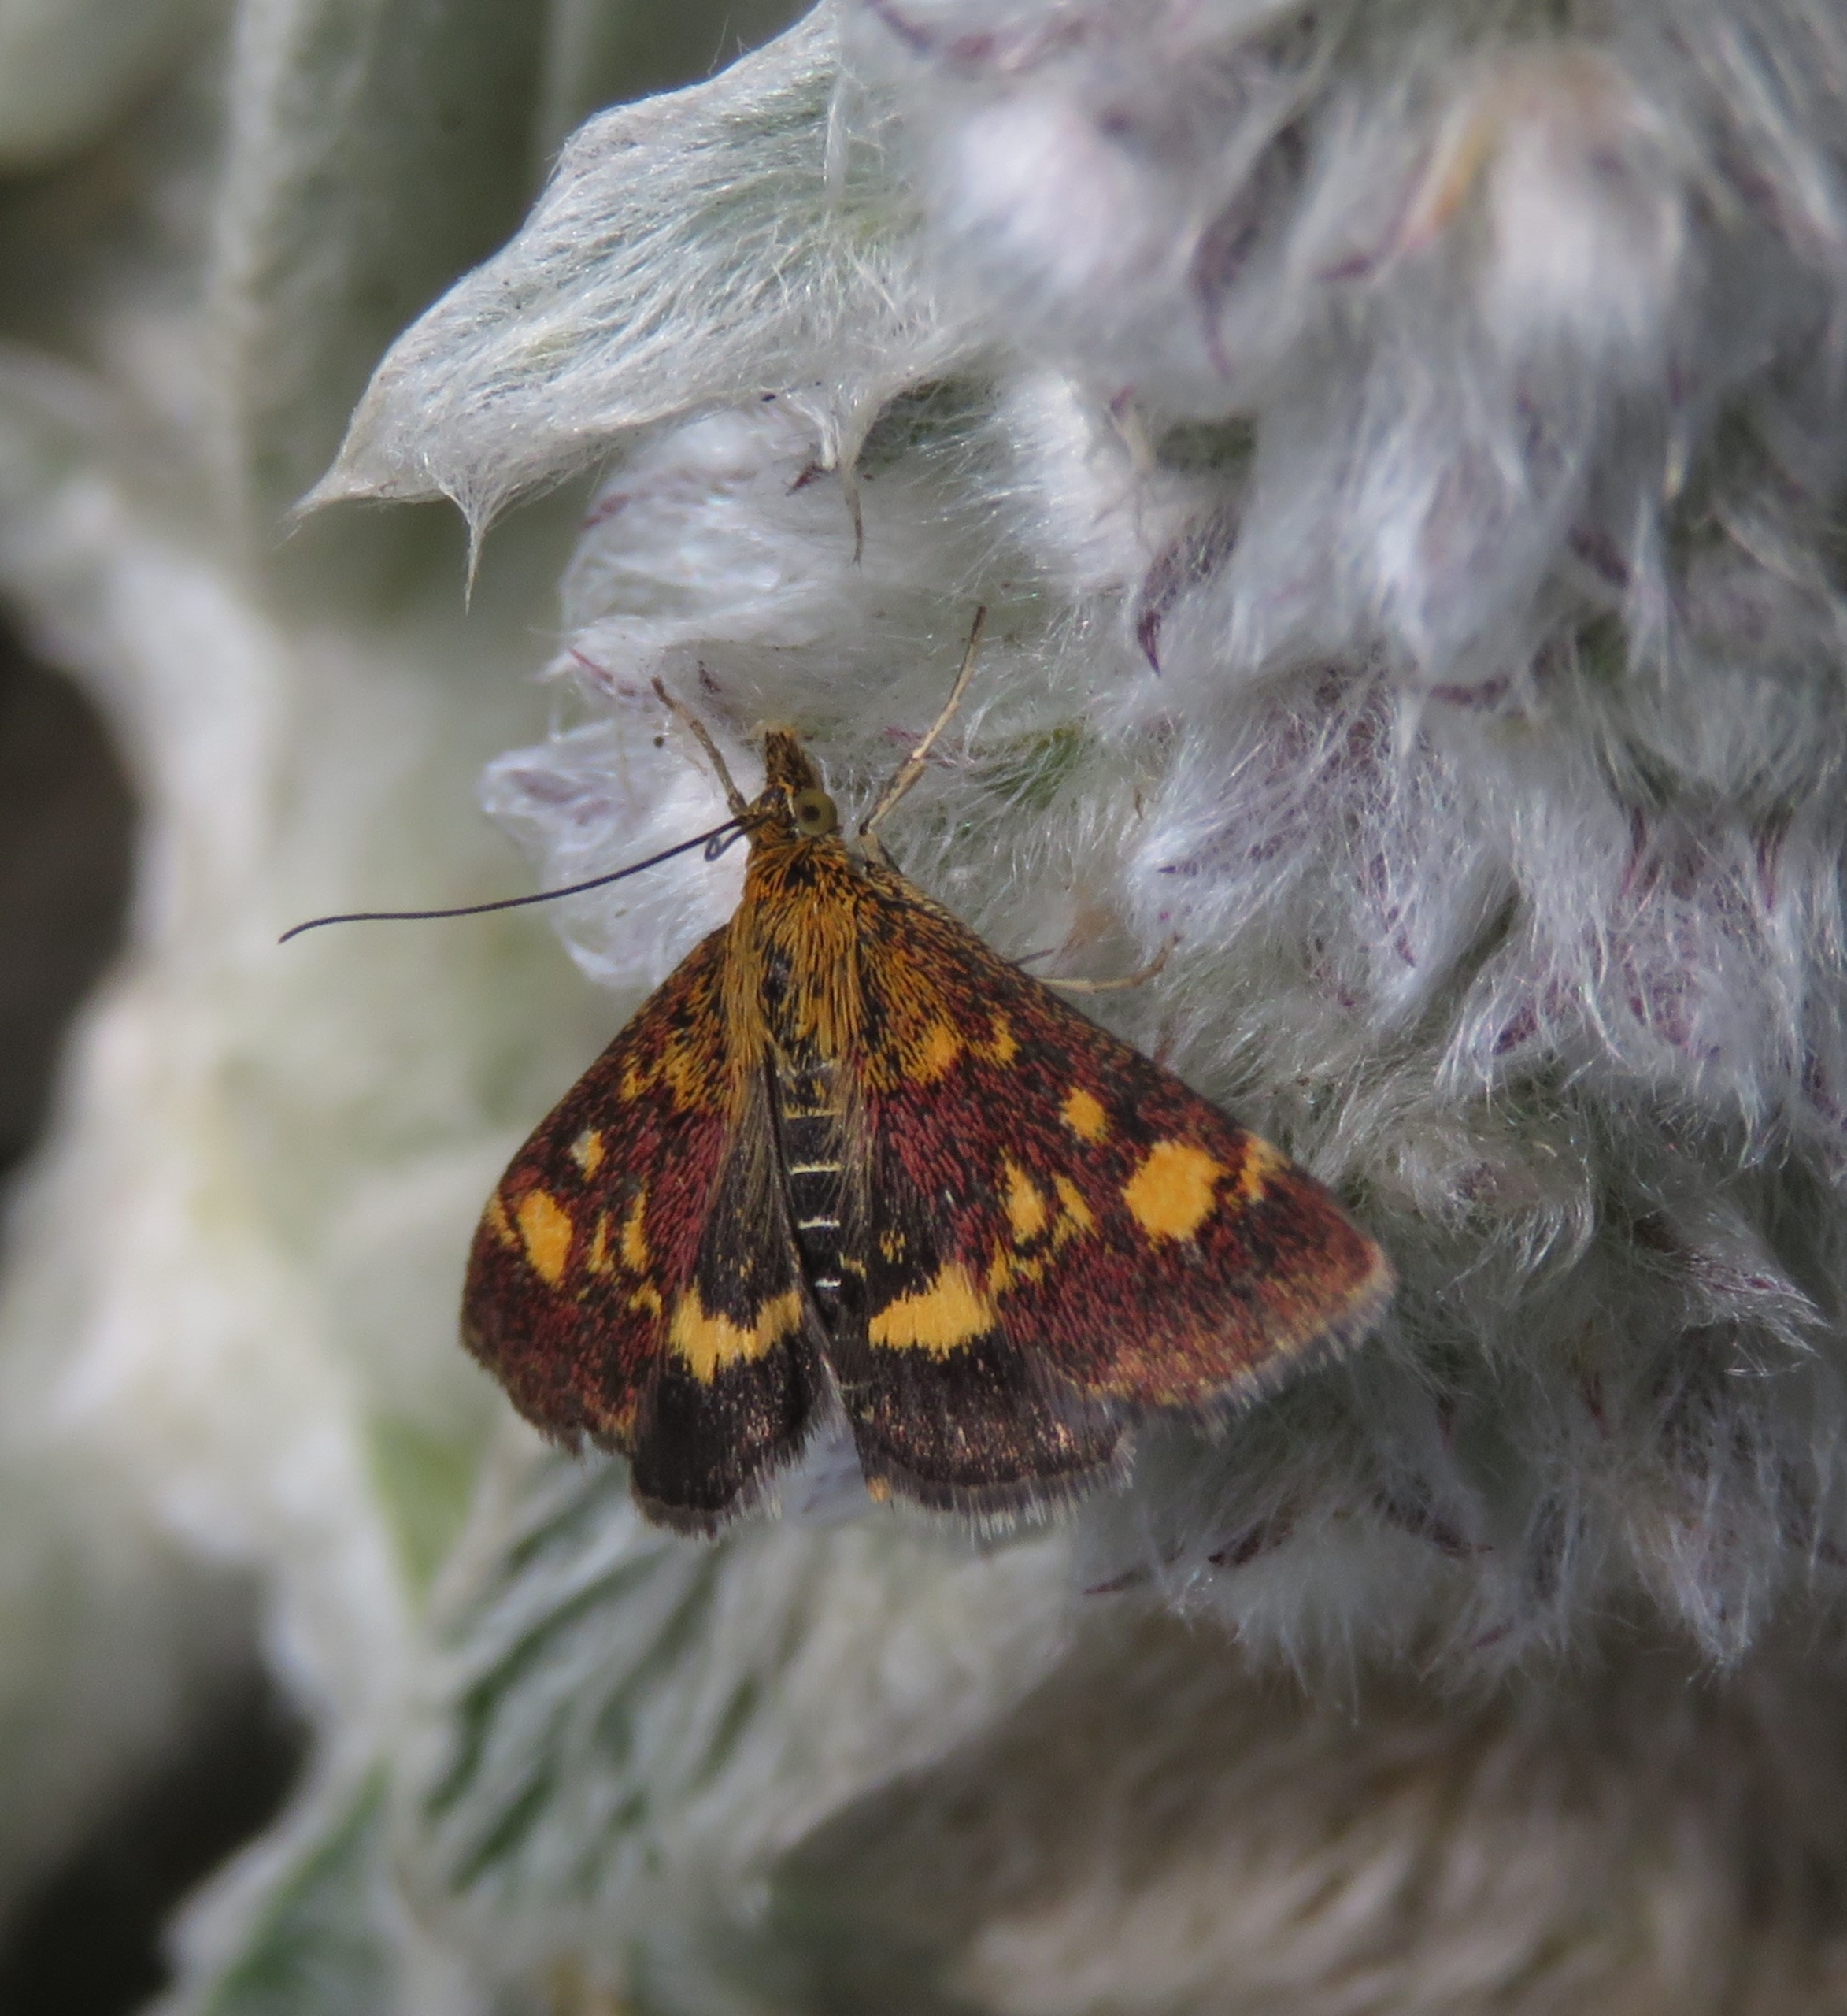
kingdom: Animalia
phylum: Arthropoda
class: Insecta
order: Lepidoptera
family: Crambidae
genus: Pyrausta
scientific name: Pyrausta aurata
